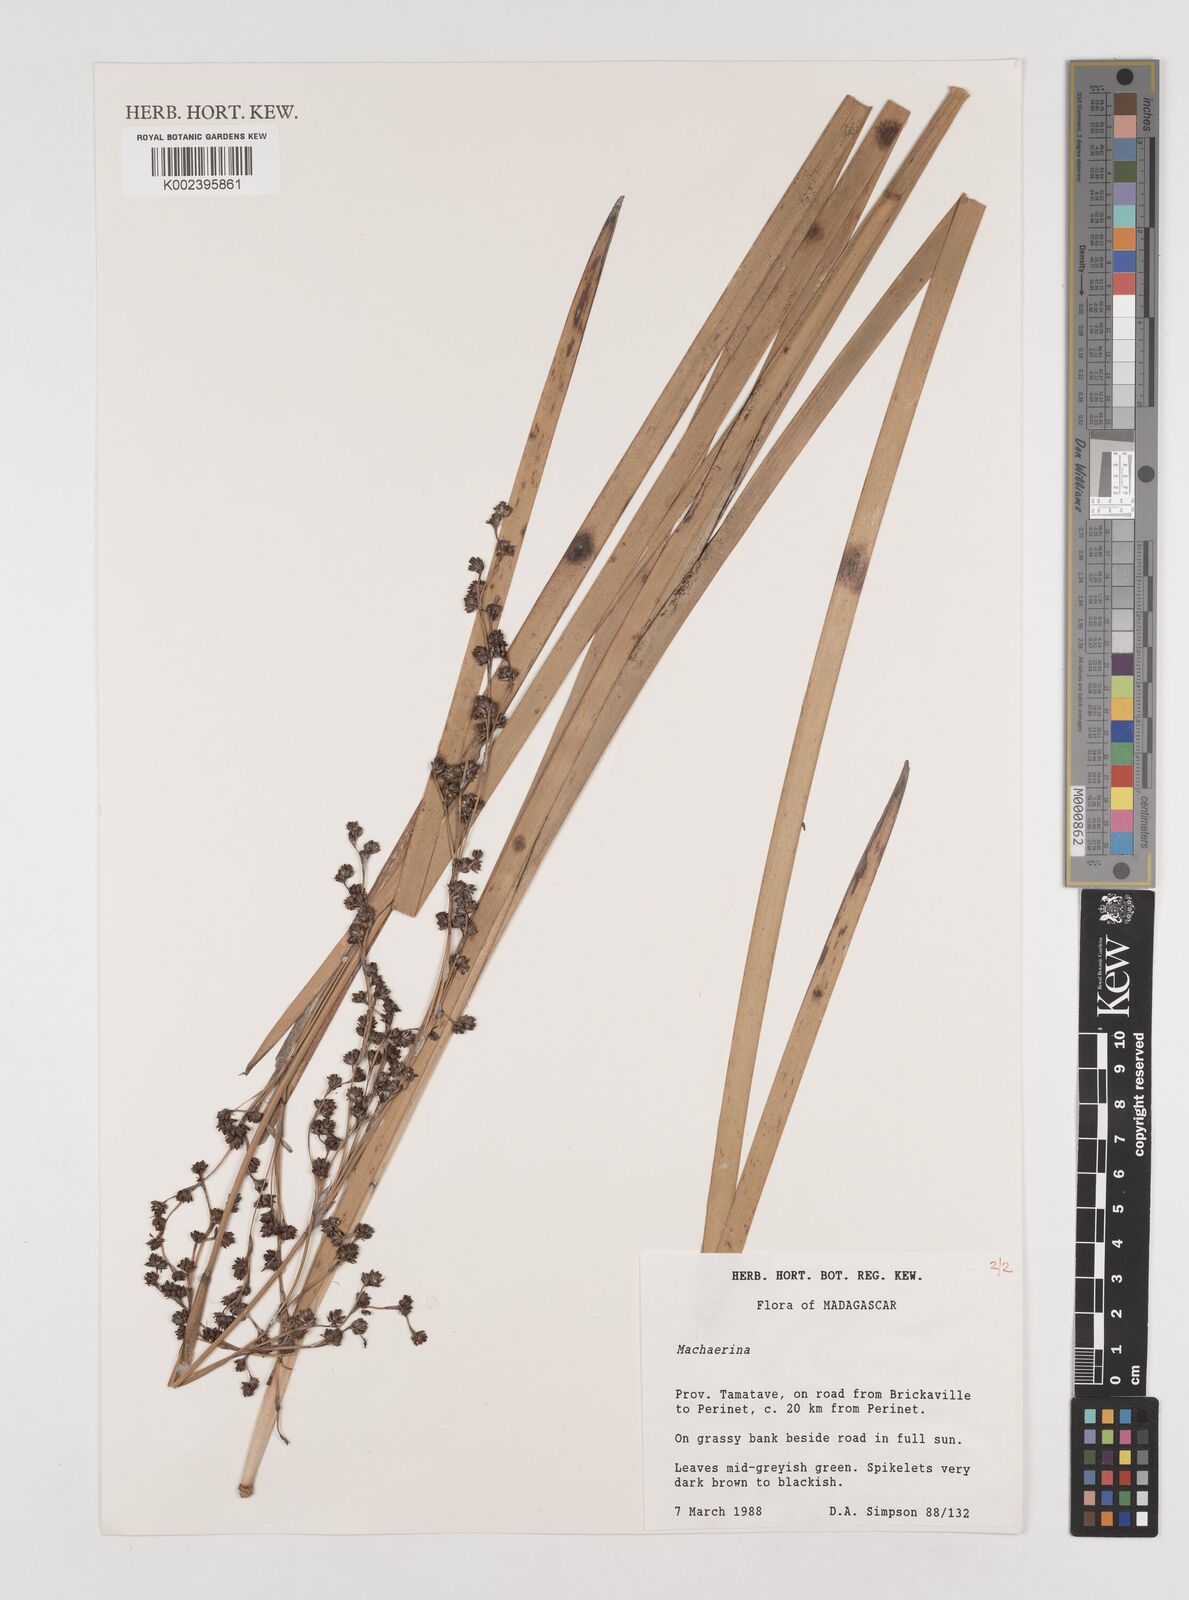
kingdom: Plantae
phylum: Tracheophyta
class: Liliopsida
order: Poales
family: Cyperaceae
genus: Machaerina
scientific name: Machaerina
